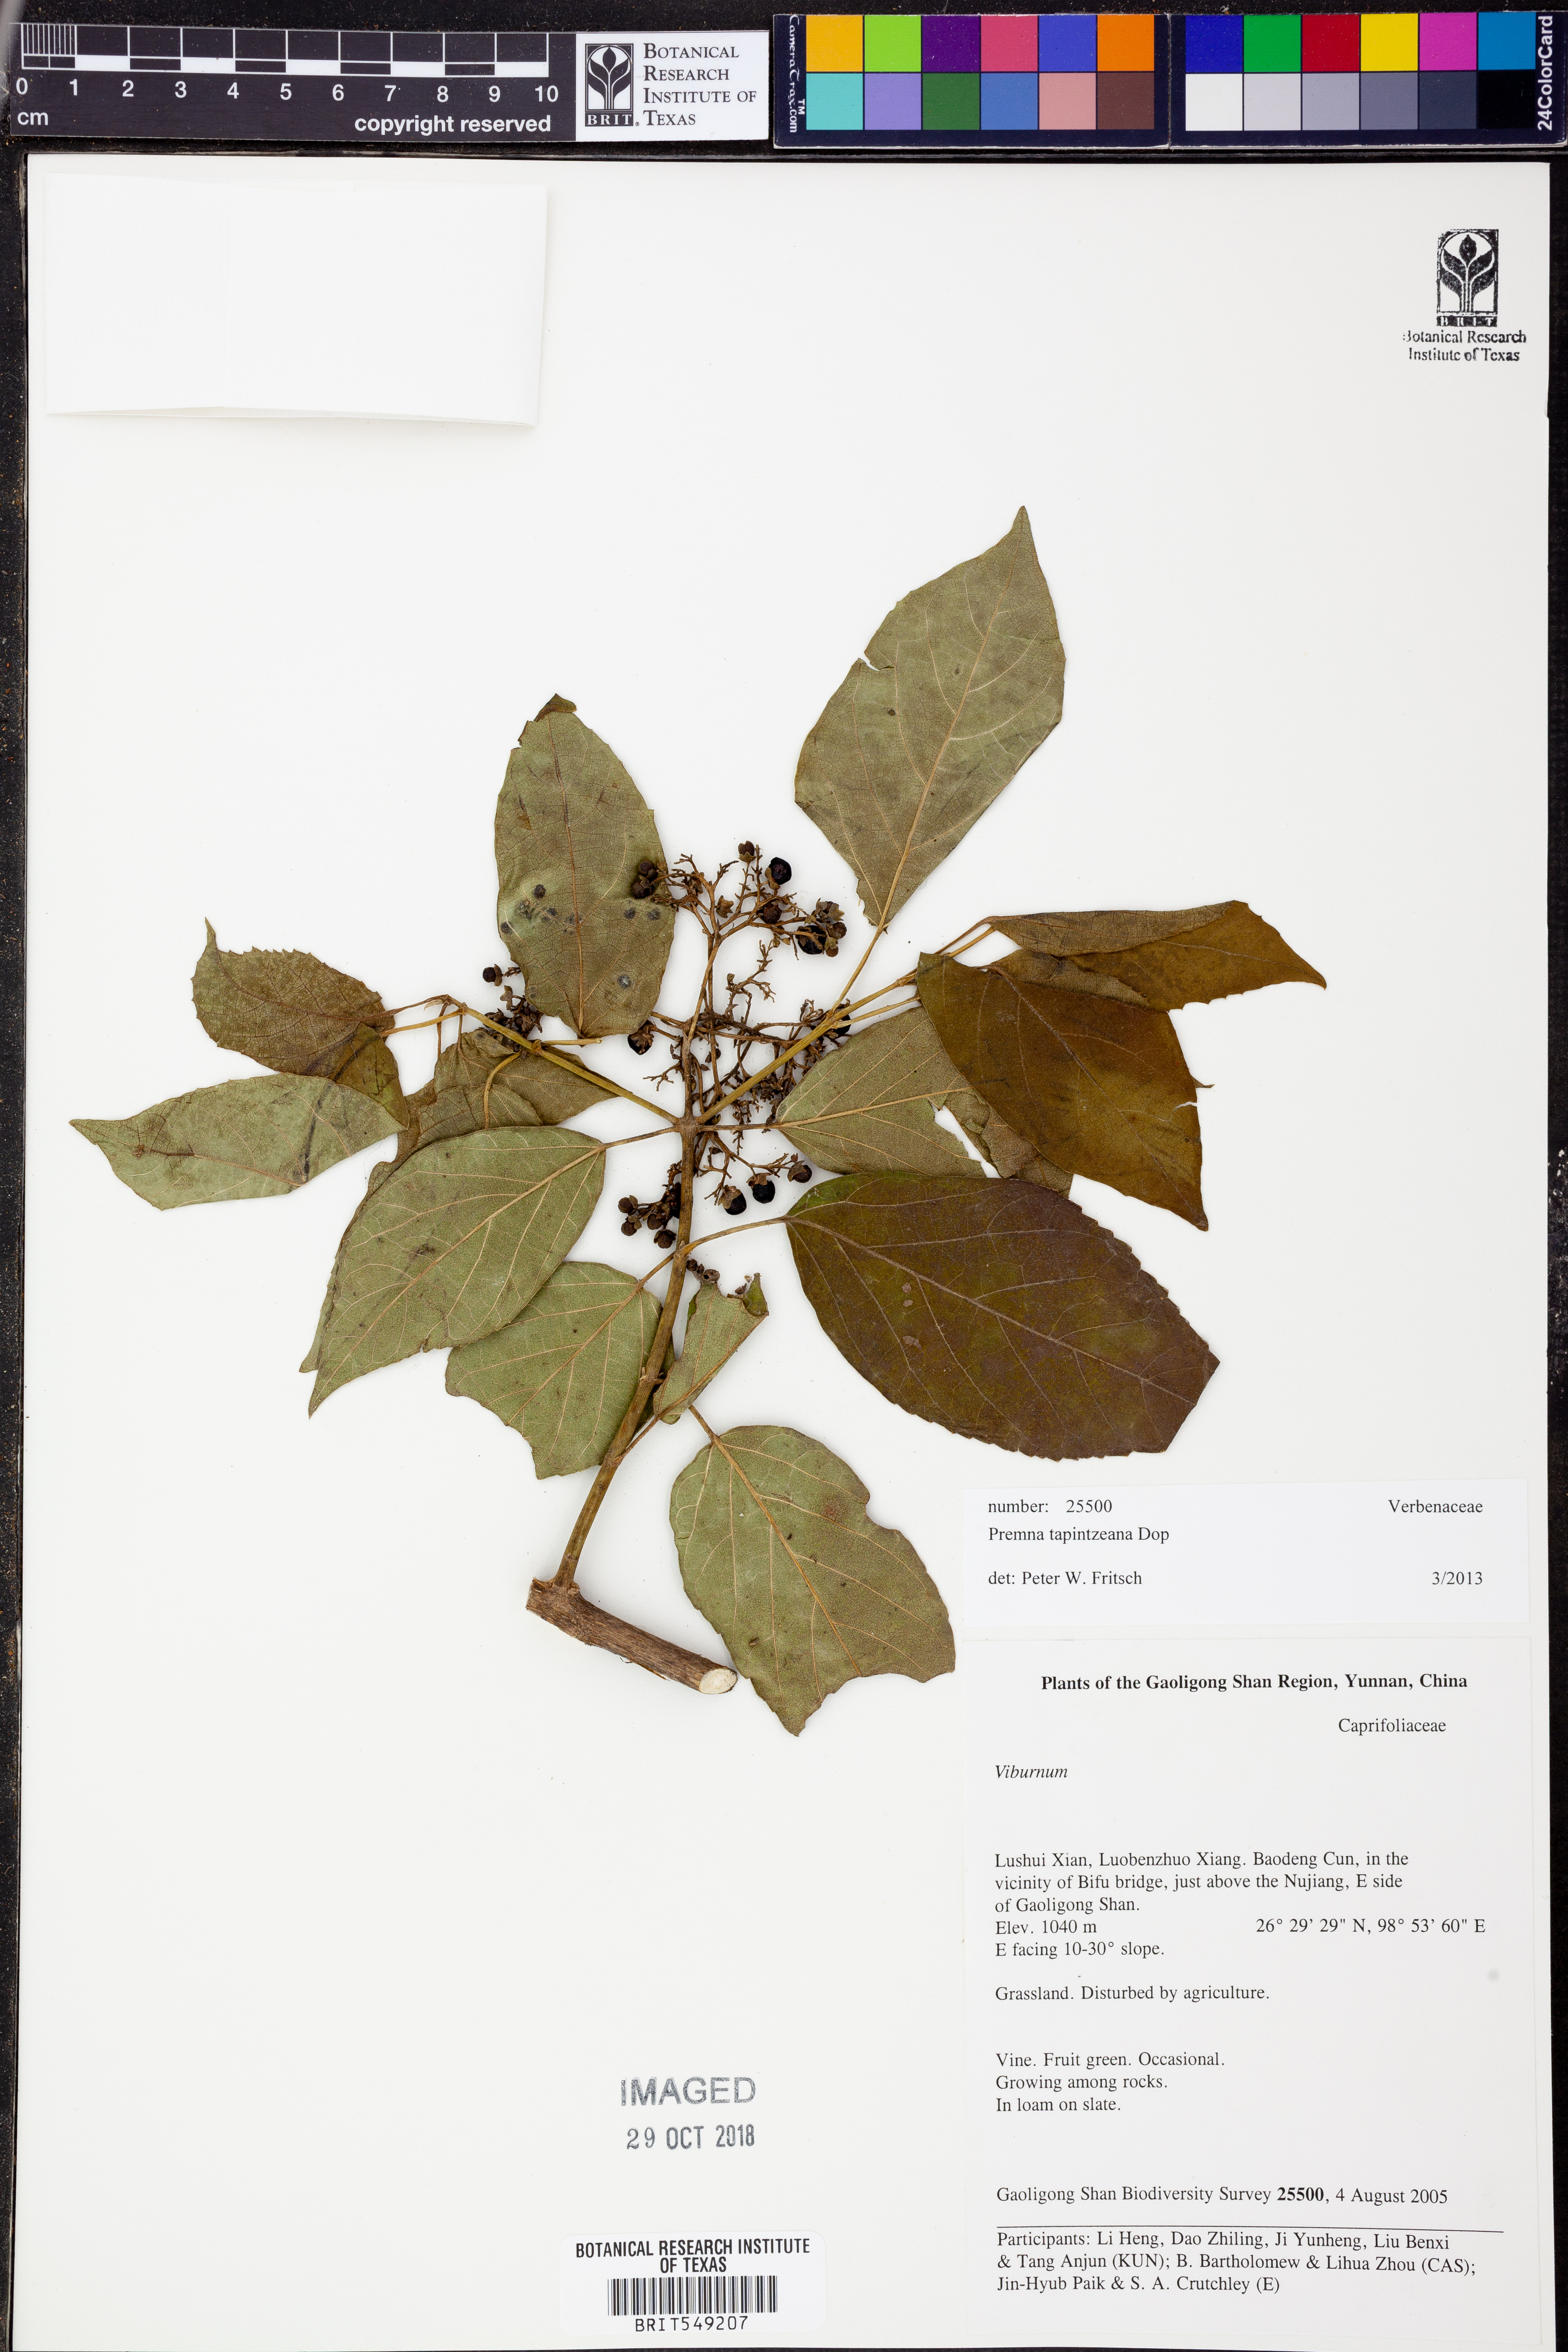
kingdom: Plantae
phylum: Tracheophyta
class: Magnoliopsida
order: Lamiales
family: Lamiaceae
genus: Premna
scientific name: Premna tapintzeana
